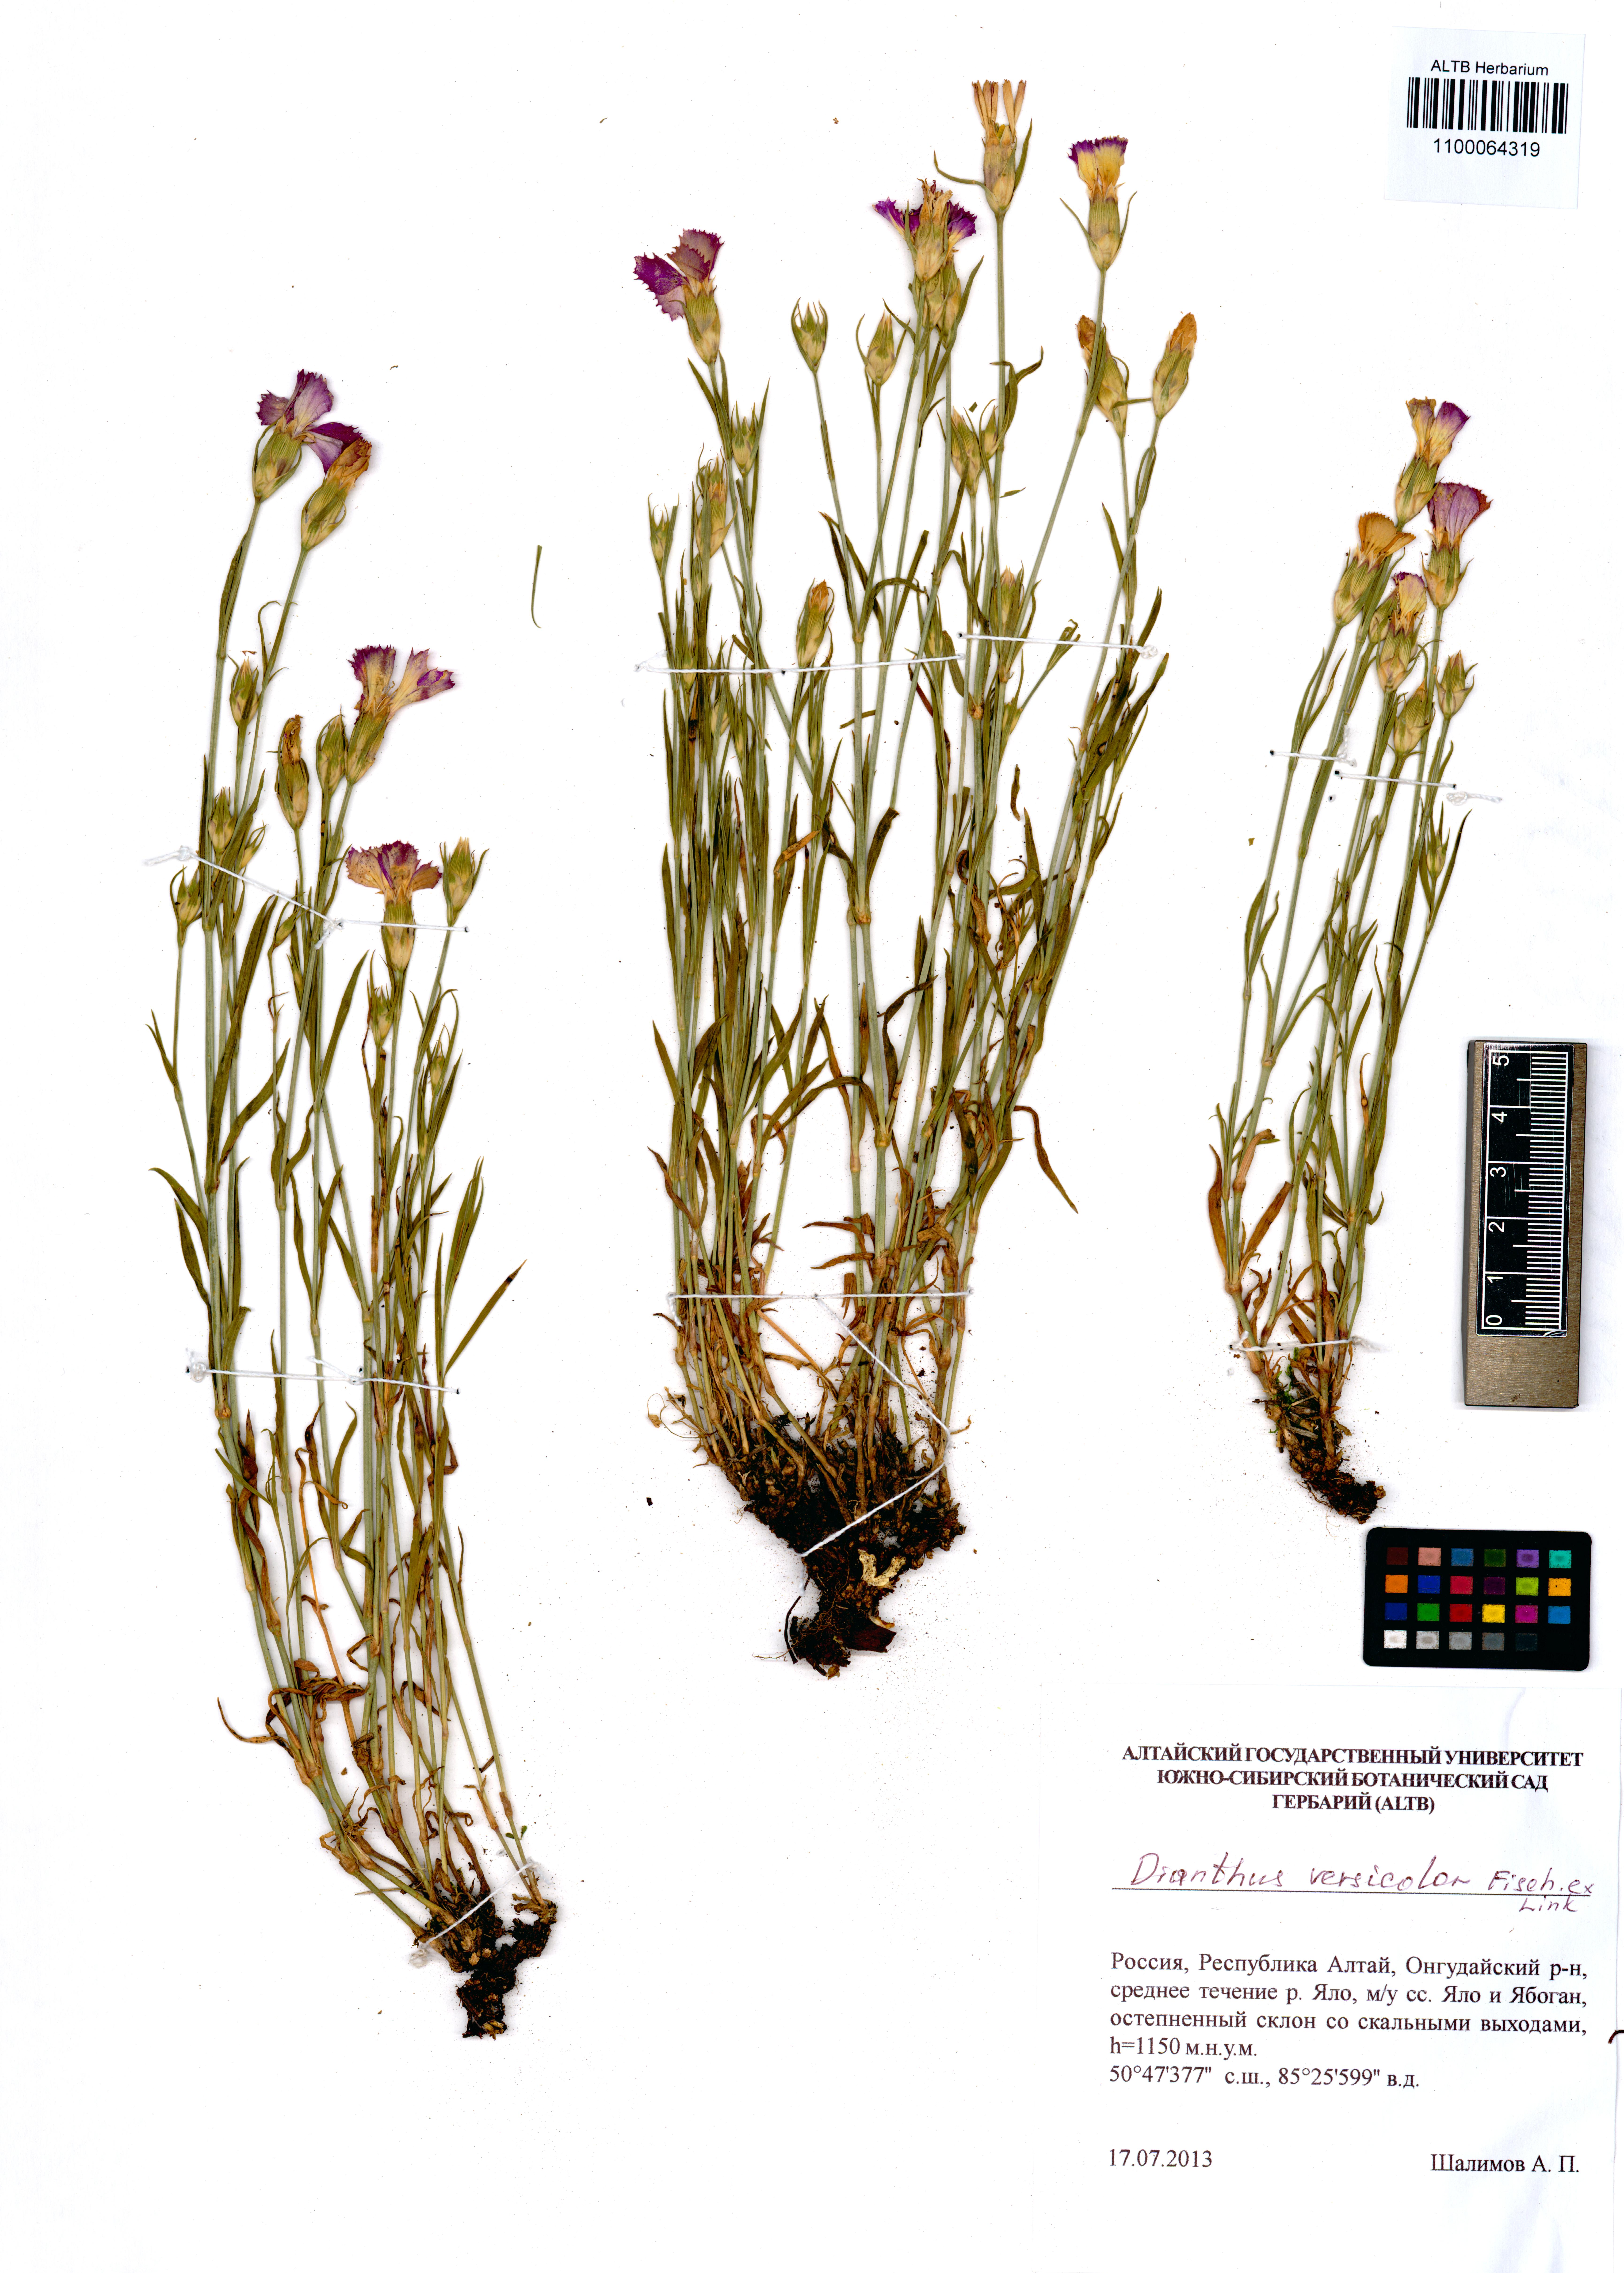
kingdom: Plantae
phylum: Tracheophyta
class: Magnoliopsida
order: Caryophyllales
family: Caryophyllaceae
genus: Dianthus
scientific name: Dianthus chinensis
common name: Rainbow pink
